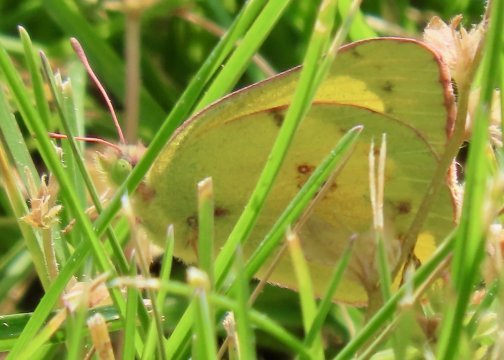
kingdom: Animalia
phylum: Arthropoda
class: Insecta
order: Lepidoptera
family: Pieridae
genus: Colias
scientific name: Colias eurytheme
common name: Orange Sulphur
